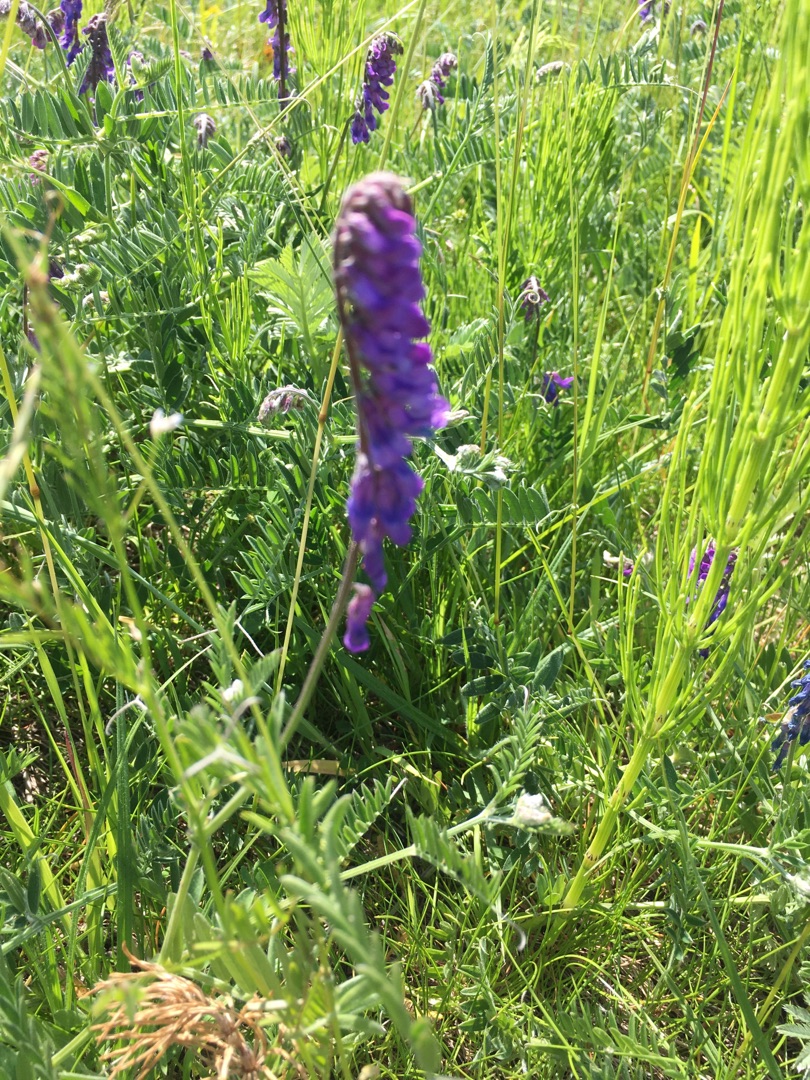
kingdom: Plantae
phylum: Tracheophyta
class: Magnoliopsida
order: Fabales
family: Fabaceae
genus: Vicia
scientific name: Vicia cracca
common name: Muse-vikke
